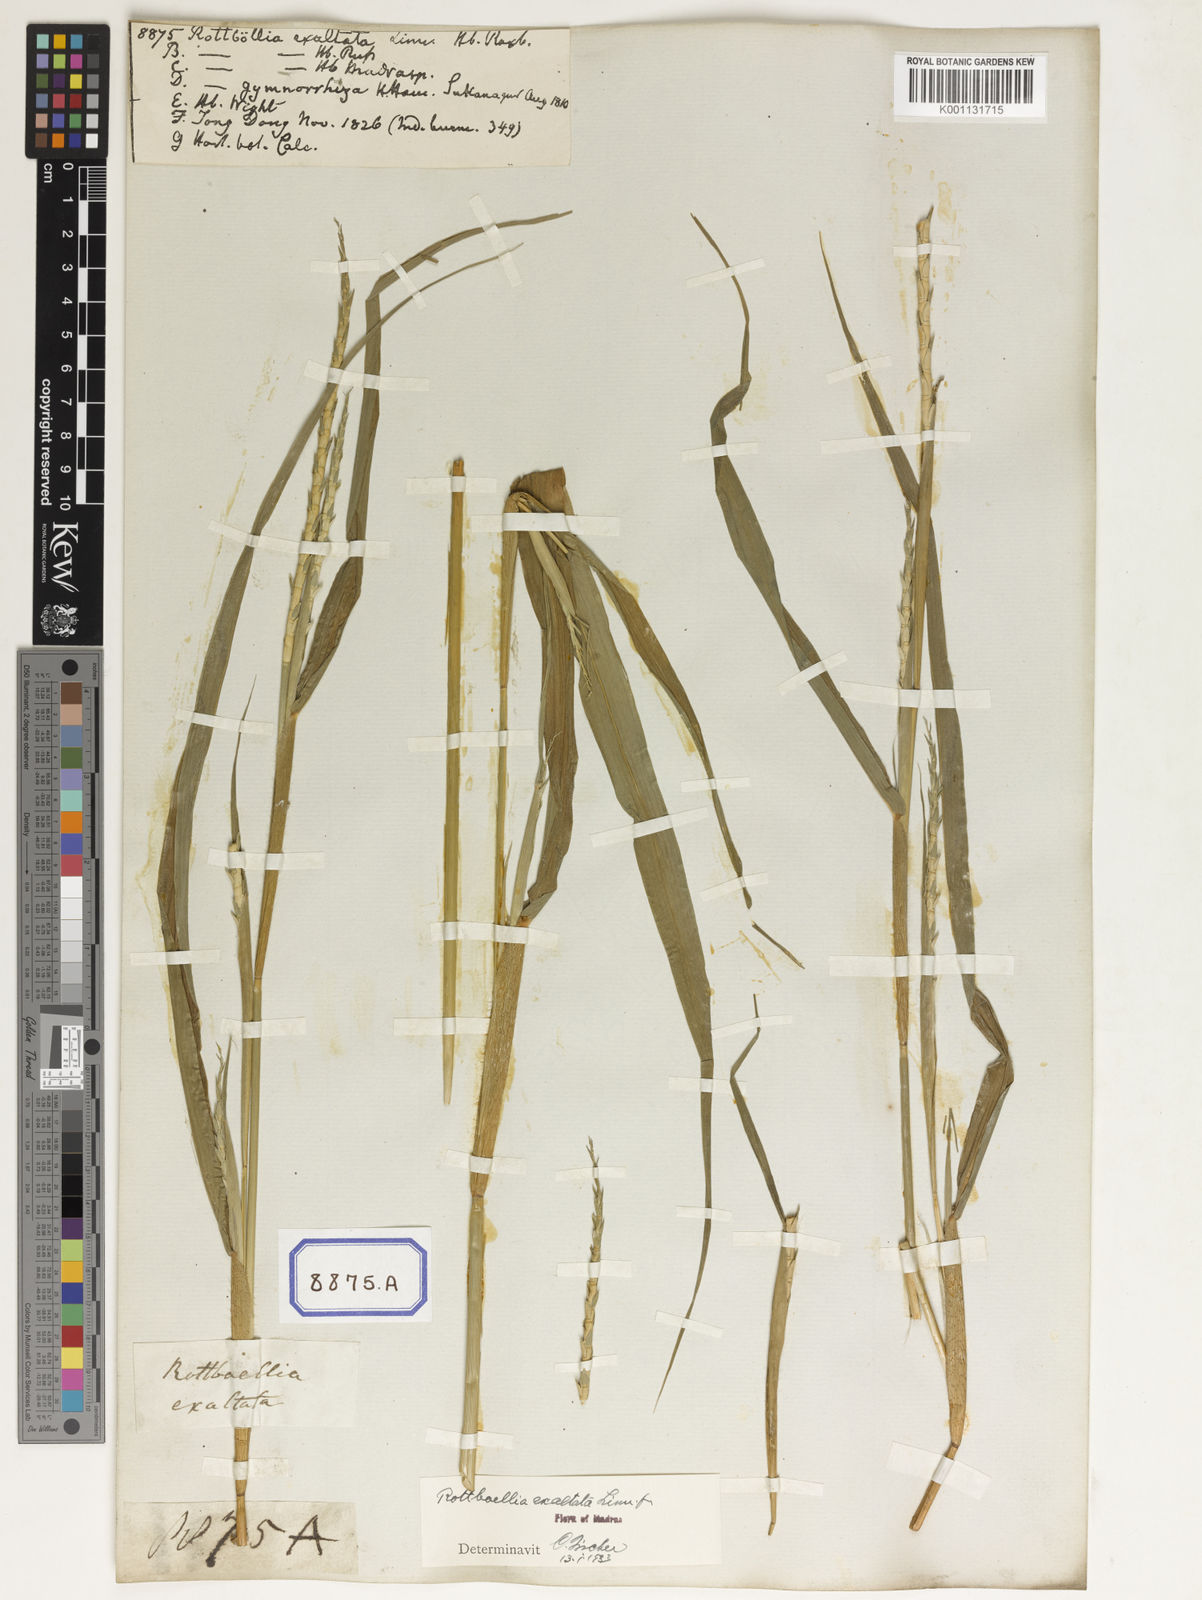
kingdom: Plantae
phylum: Tracheophyta
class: Liliopsida
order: Poales
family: Poaceae
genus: Ophiuros
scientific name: Ophiuros exaltatus
